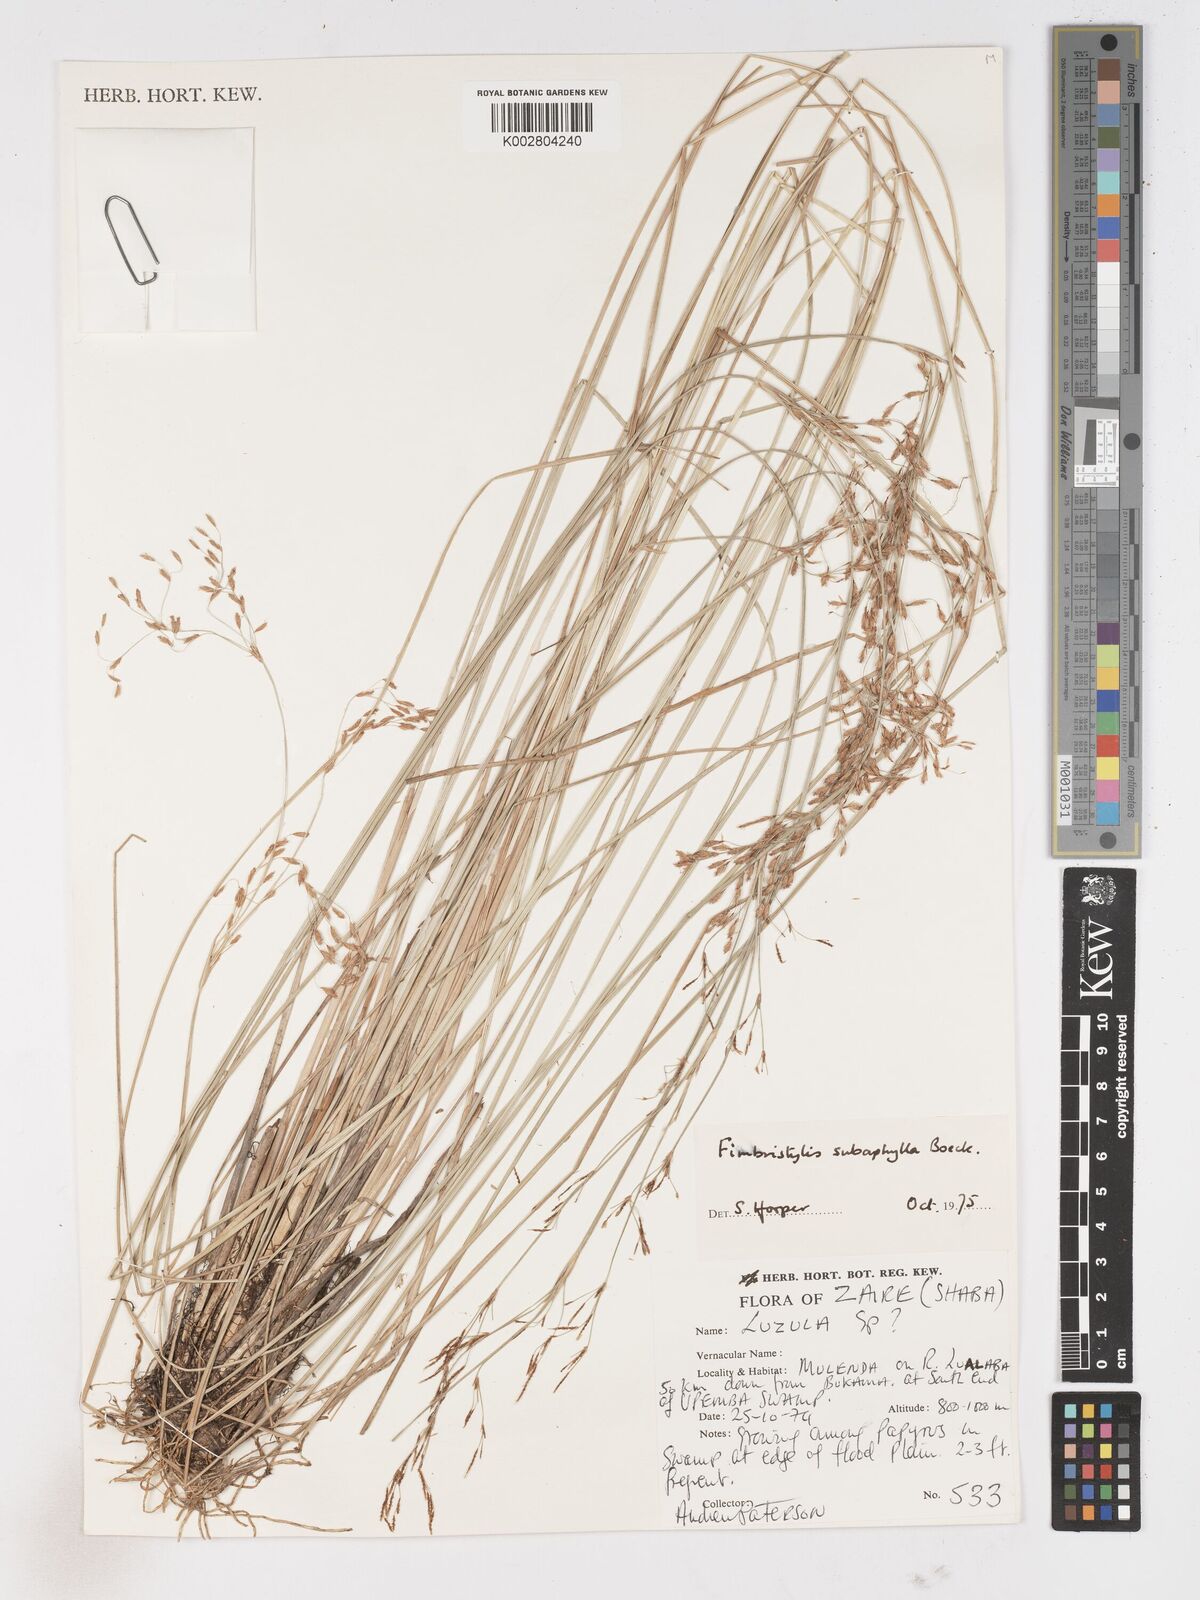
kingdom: Plantae
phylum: Tracheophyta
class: Liliopsida
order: Poales
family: Cyperaceae
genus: Fimbristylis
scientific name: Fimbristylis subaphylla
